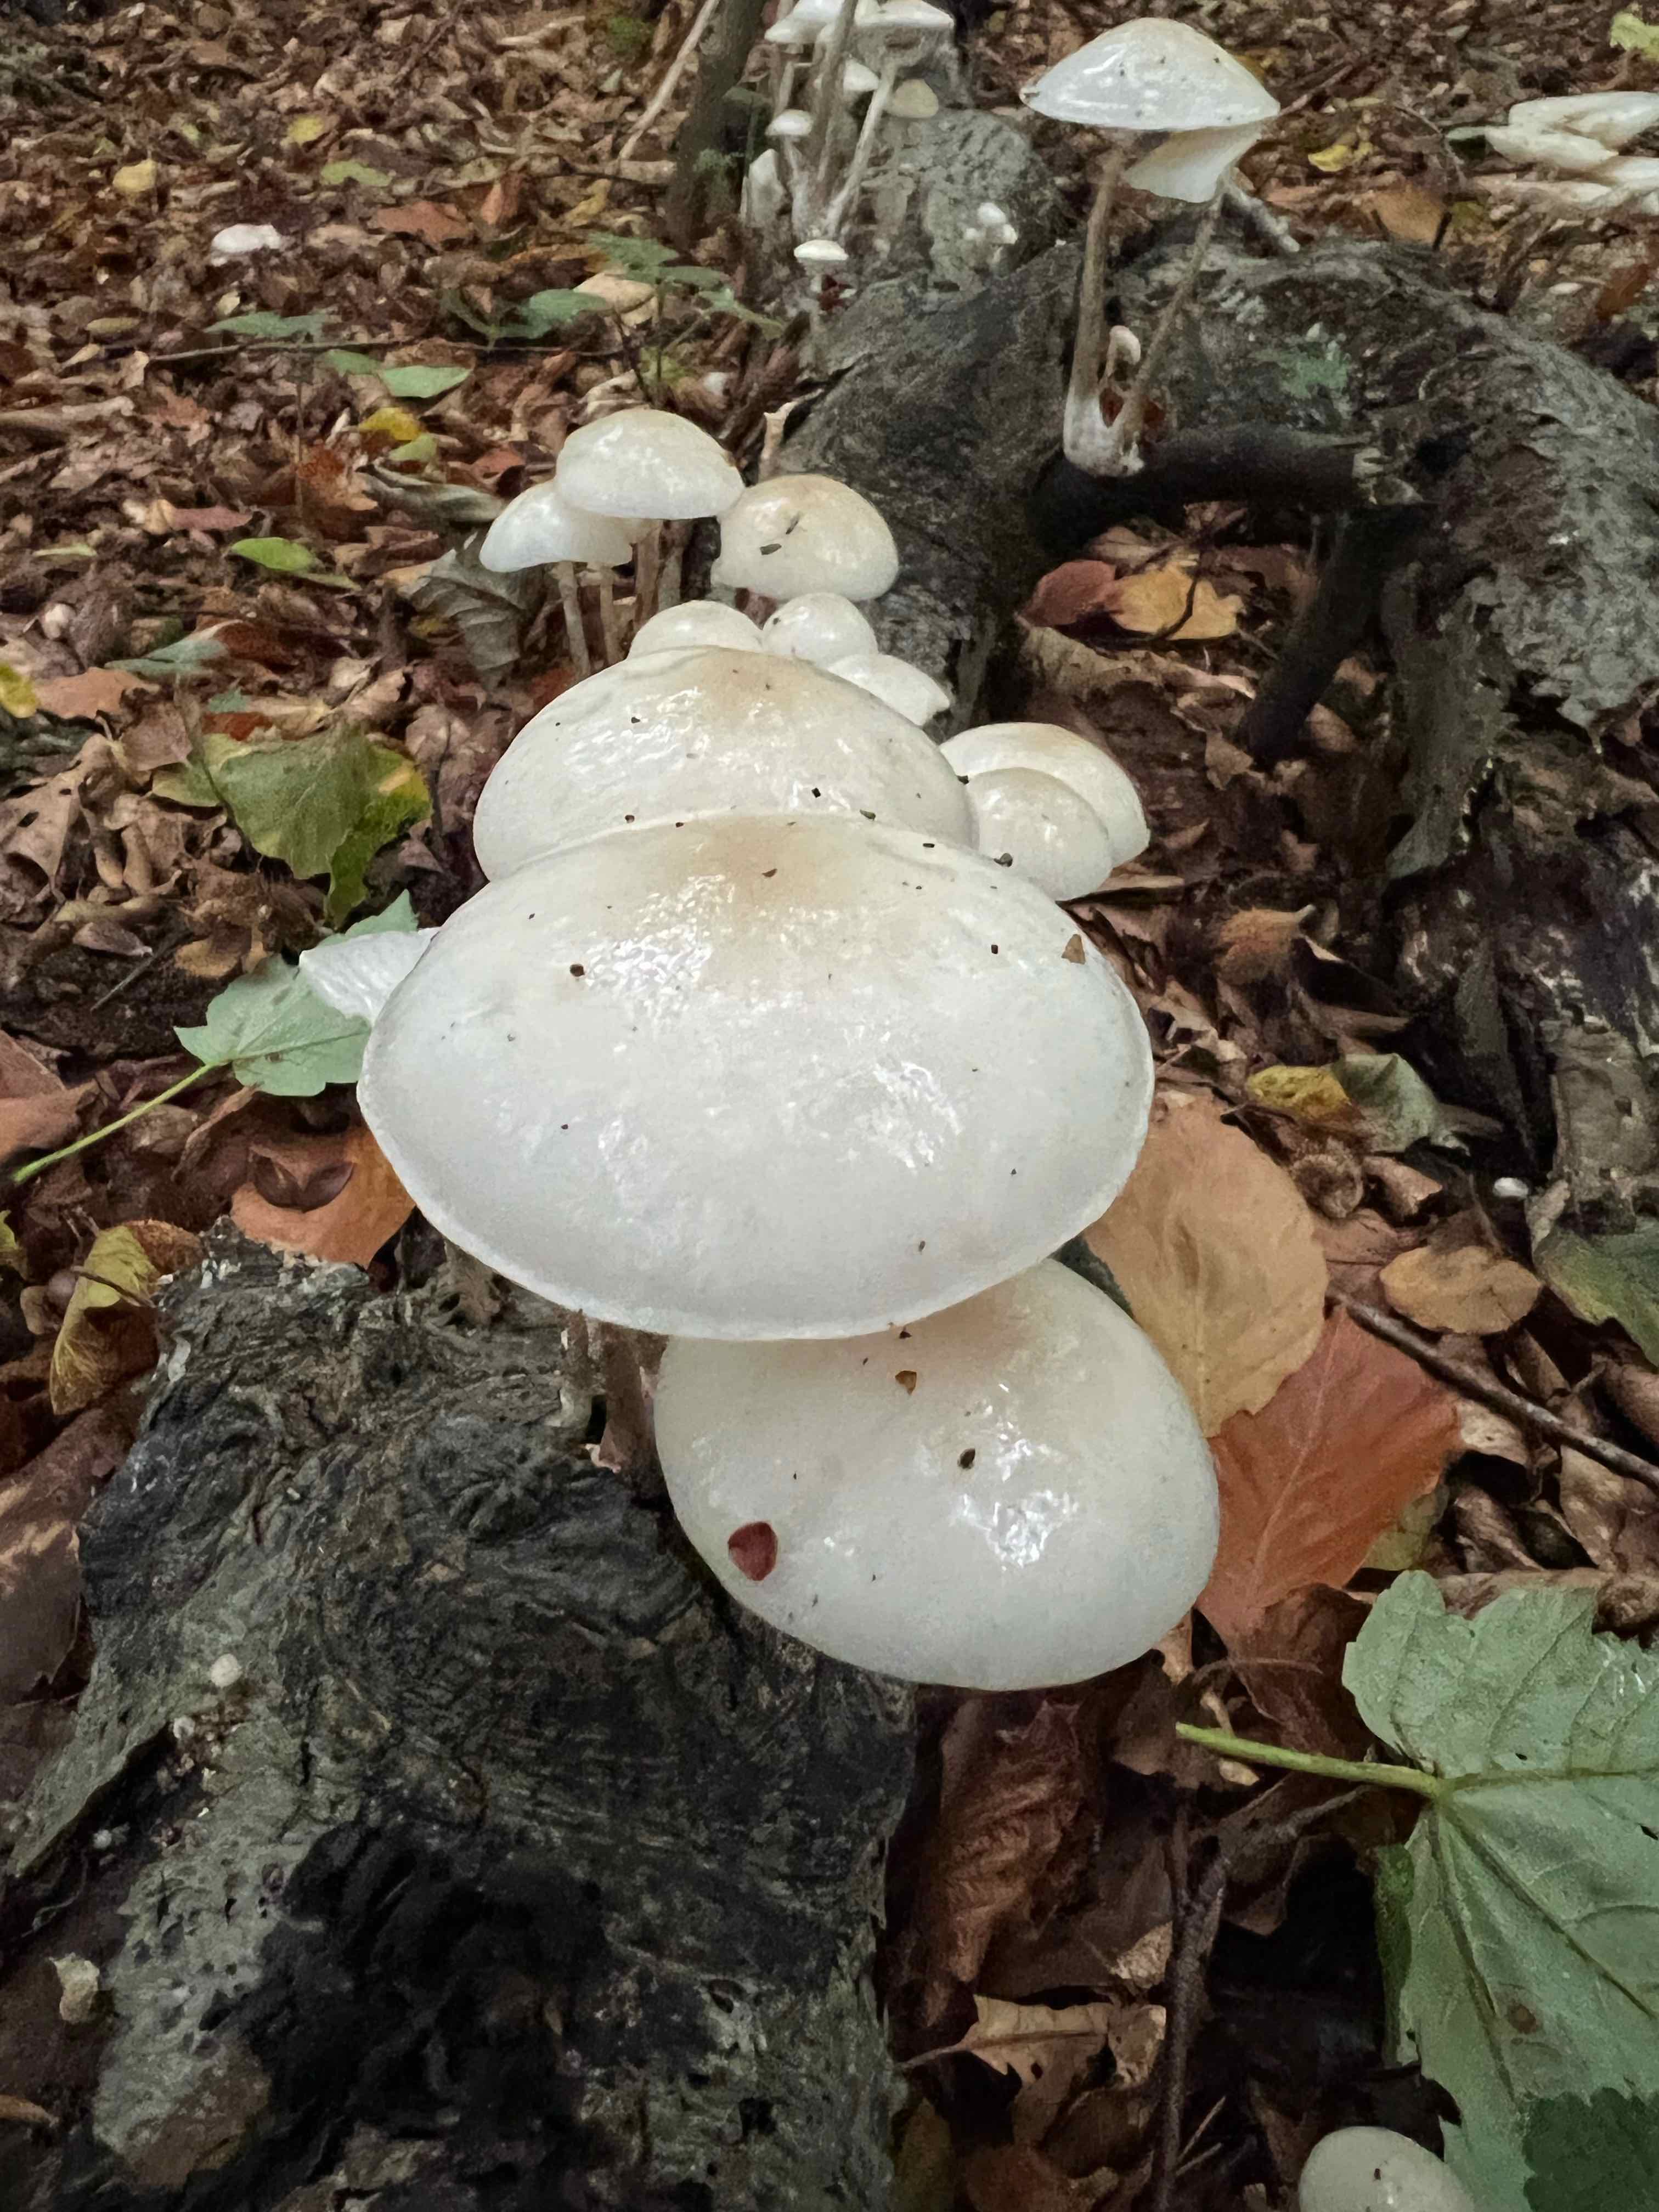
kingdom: Fungi
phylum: Basidiomycota
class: Agaricomycetes
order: Agaricales
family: Physalacriaceae
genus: Mucidula
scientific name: Mucidula mucida
